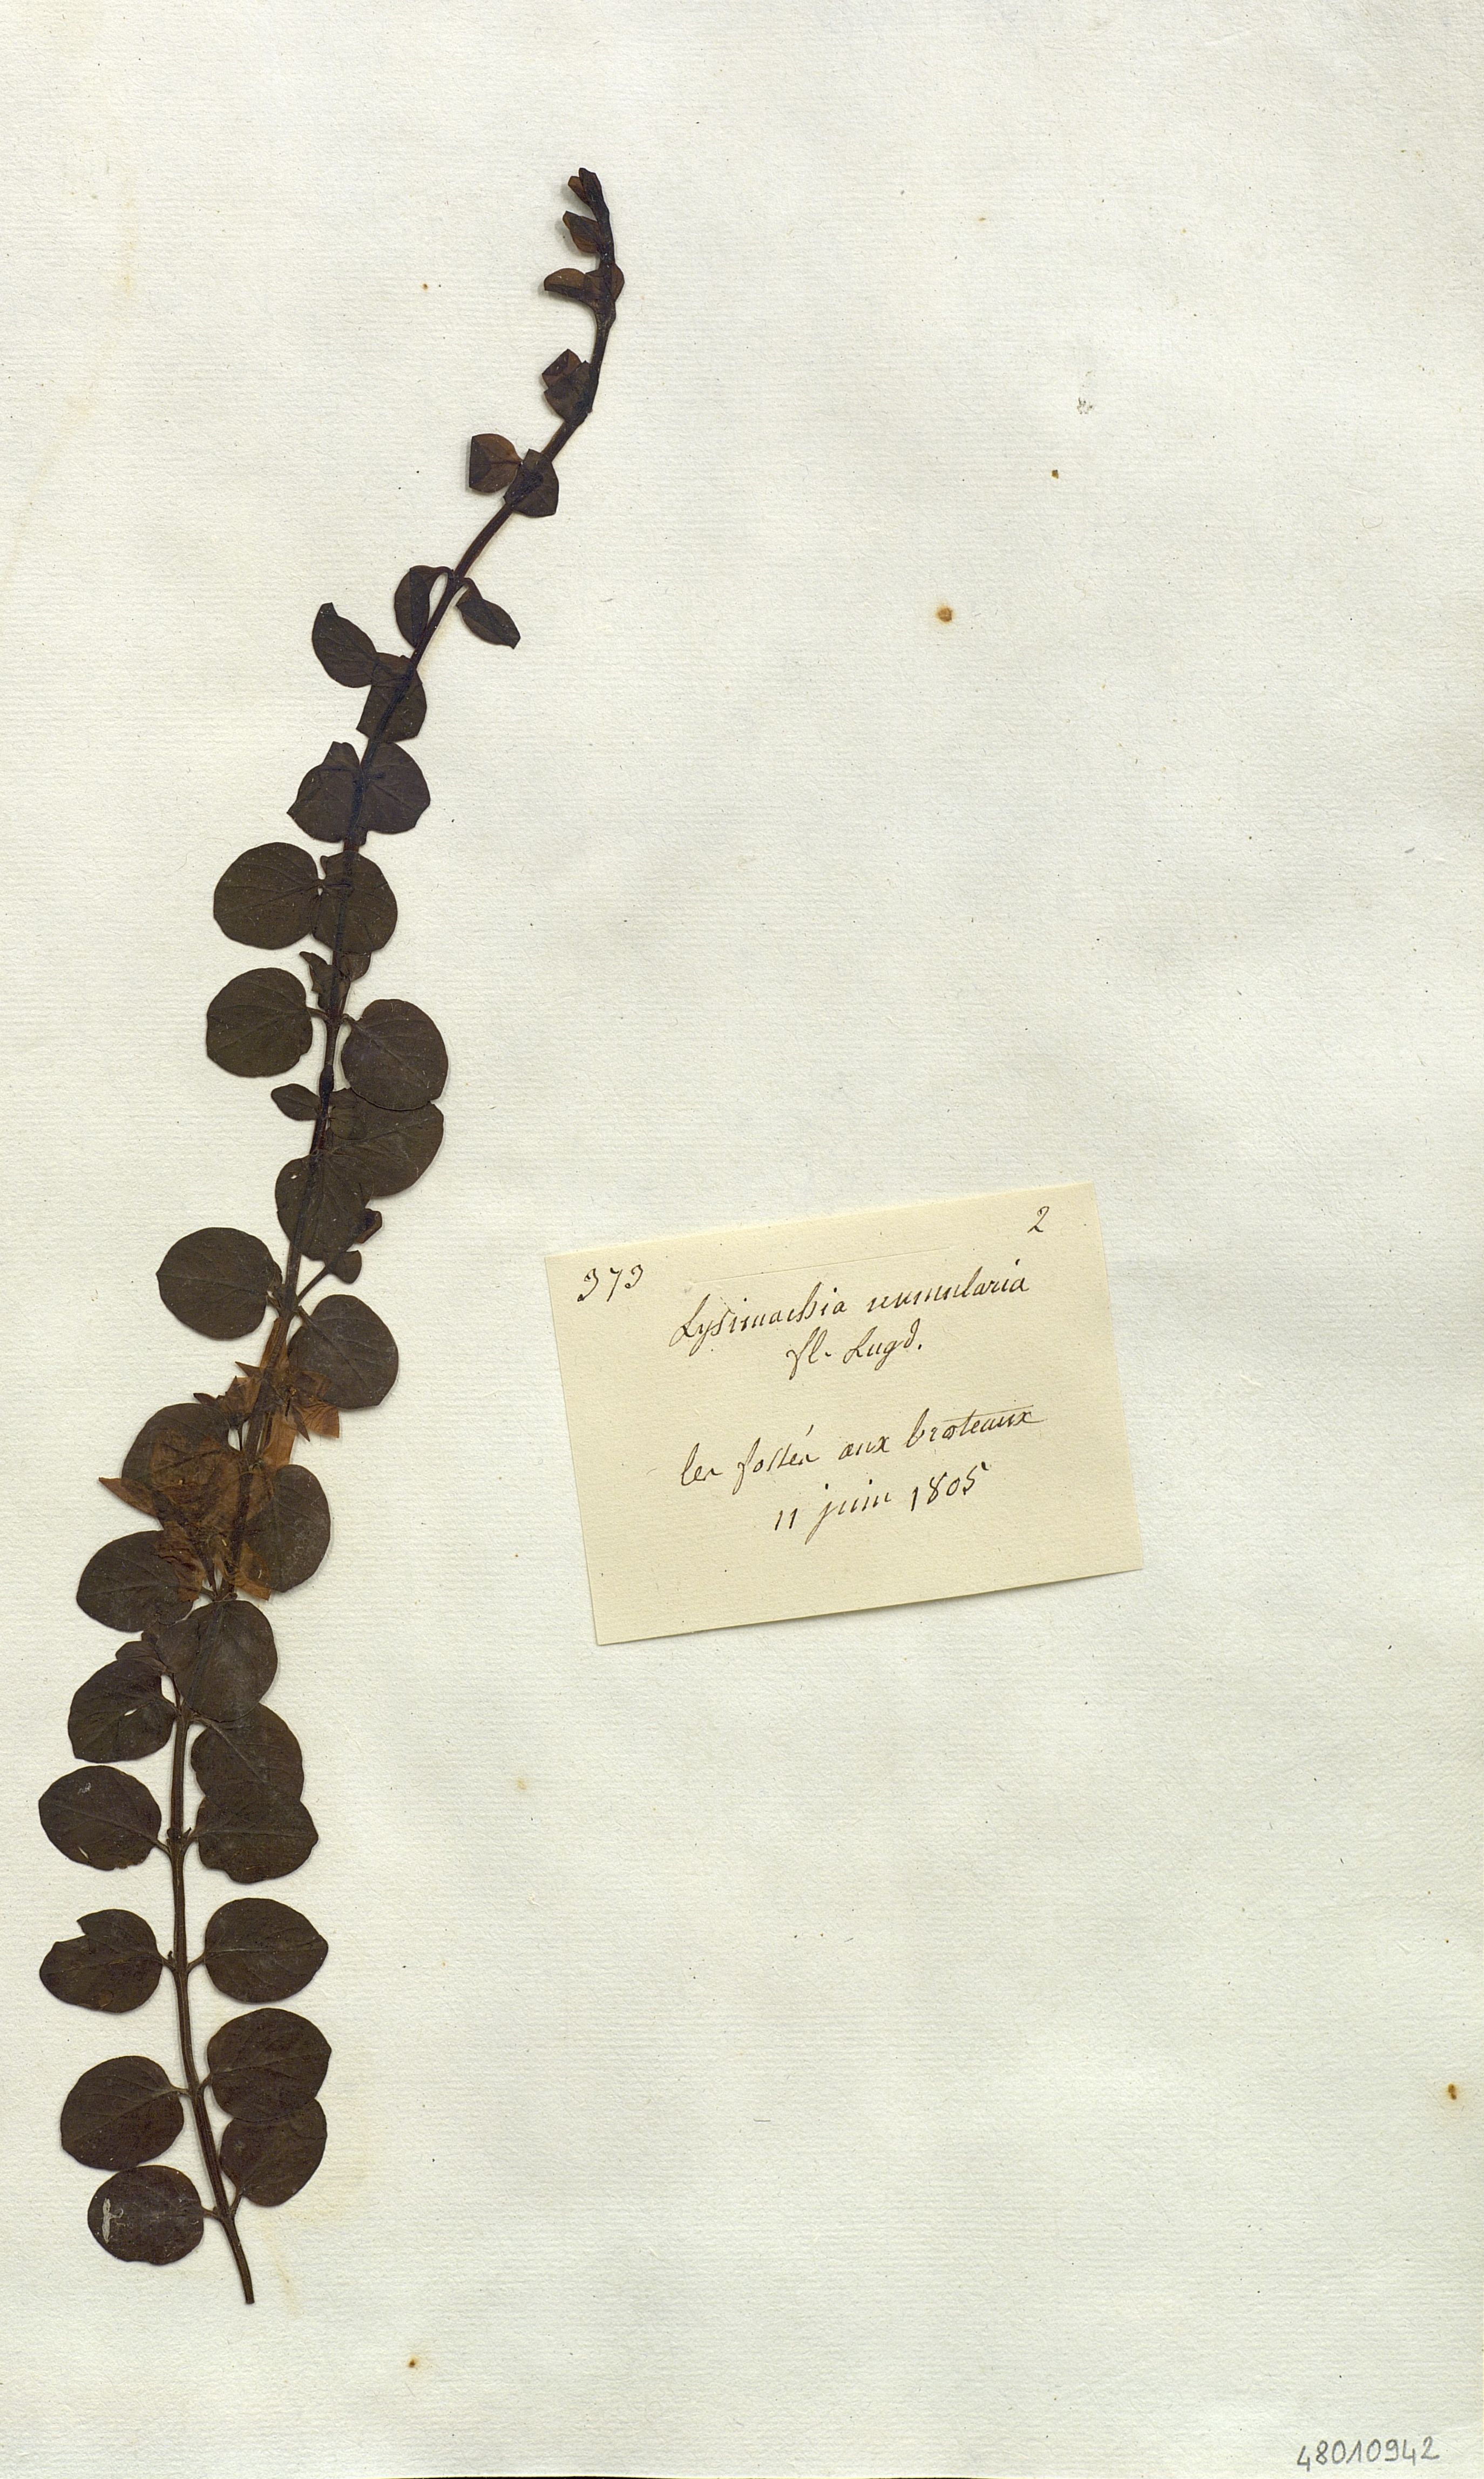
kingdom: Plantae
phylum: Tracheophyta
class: Magnoliopsida
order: Ericales
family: Primulaceae
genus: Lysimachia
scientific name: Lysimachia nummularia
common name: Moneywort
